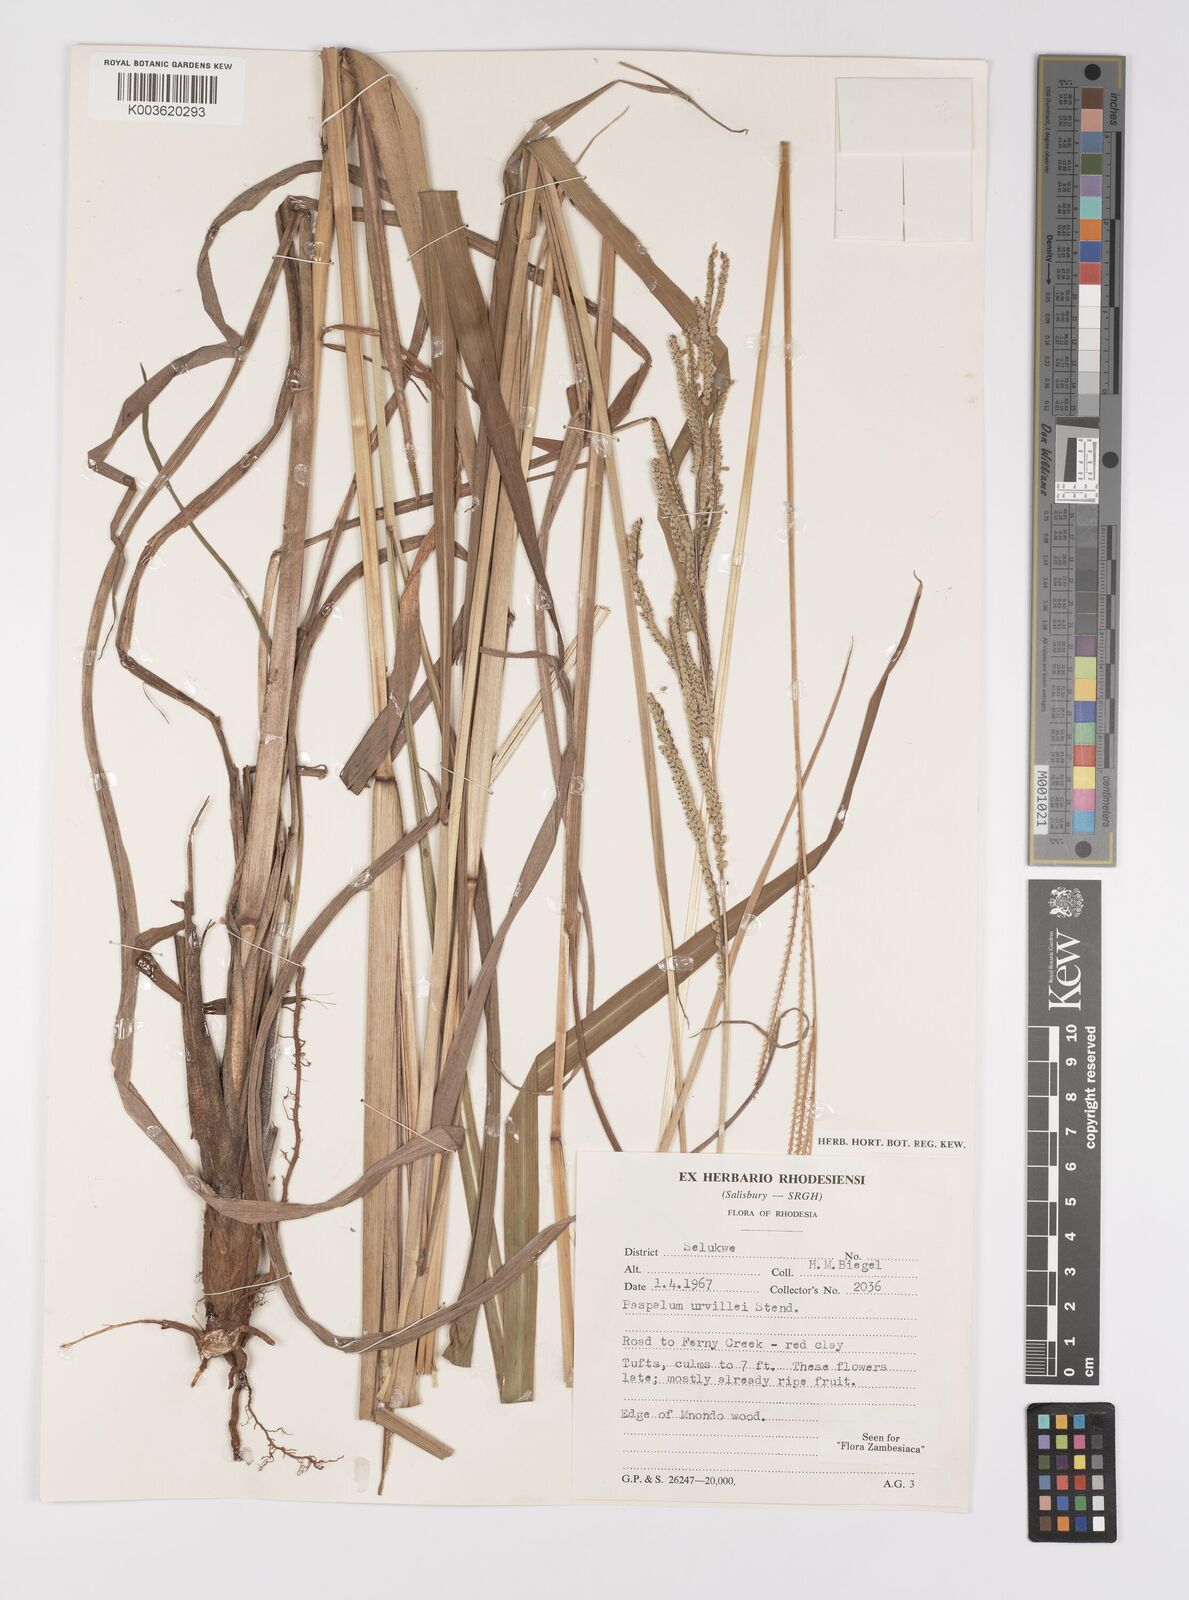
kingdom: Plantae
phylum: Tracheophyta
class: Liliopsida
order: Poales
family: Poaceae
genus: Paspalum
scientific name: Paspalum urvillei
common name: Vasey's grass
